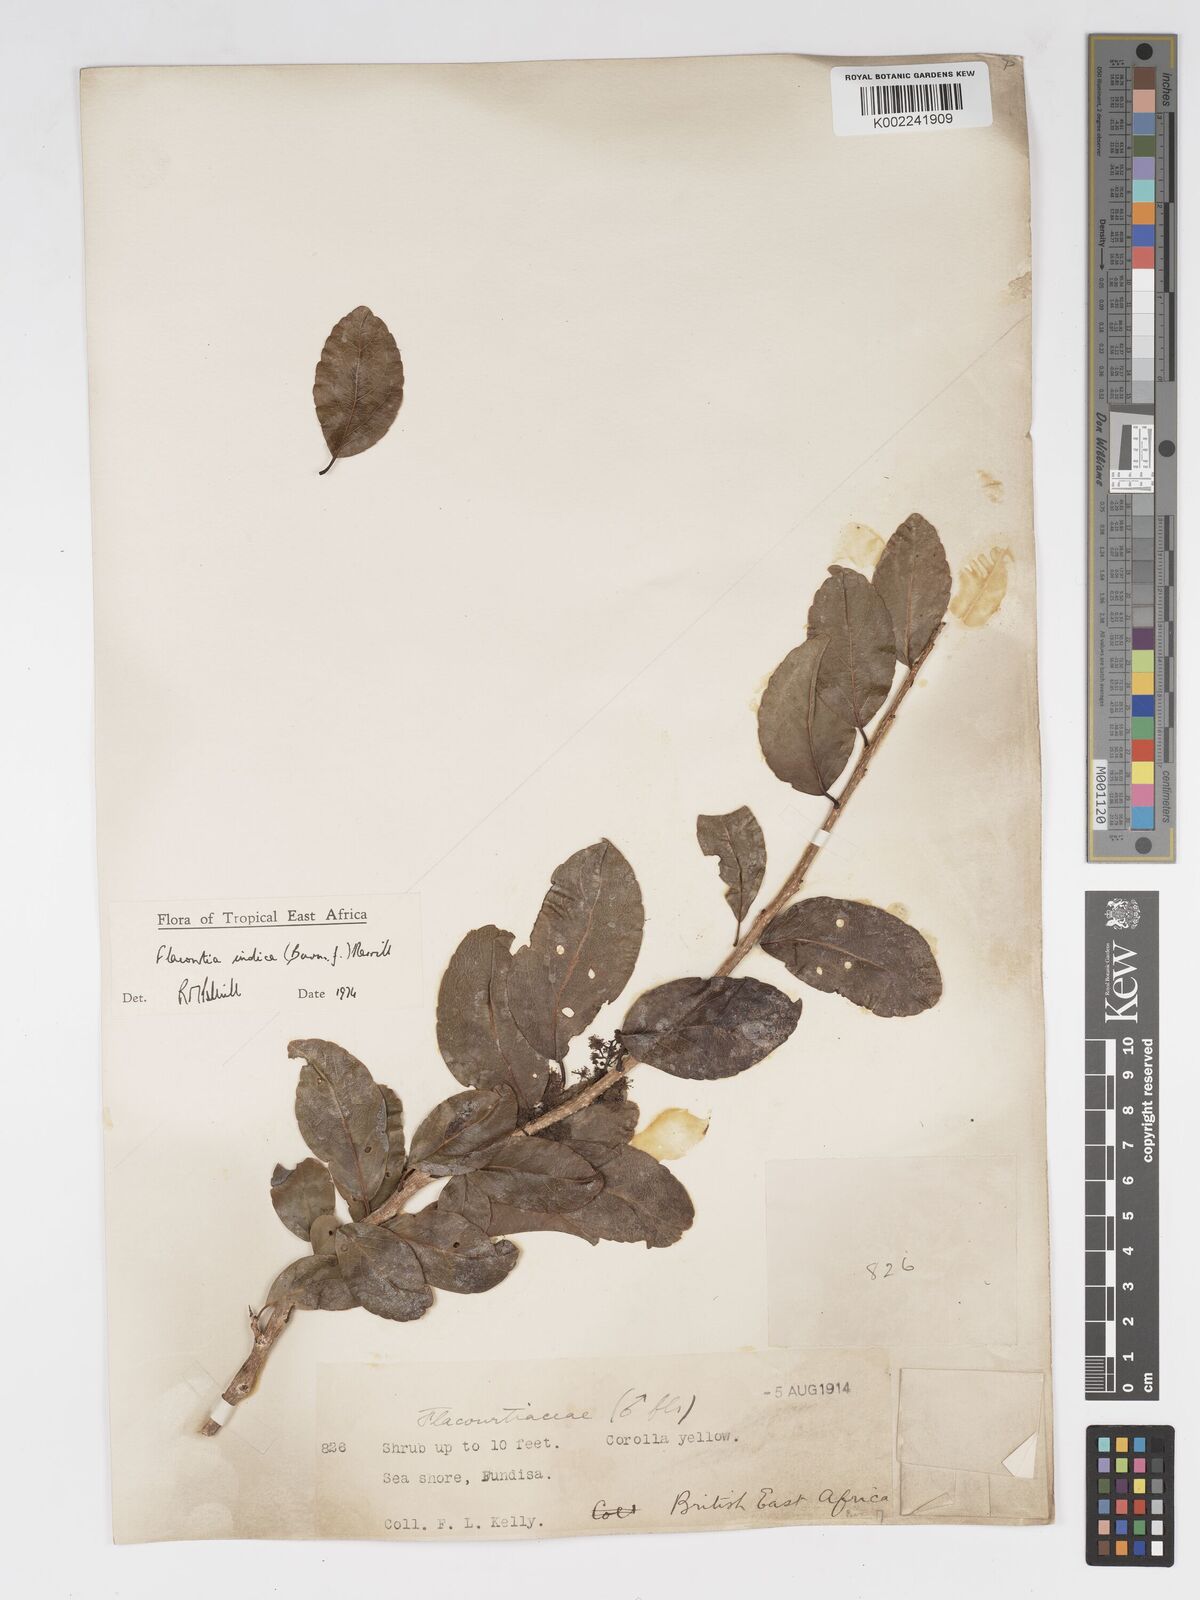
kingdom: Plantae
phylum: Tracheophyta
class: Magnoliopsida
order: Malpighiales
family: Salicaceae
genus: Flacourtia
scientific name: Flacourtia indica
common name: Governor's plum
